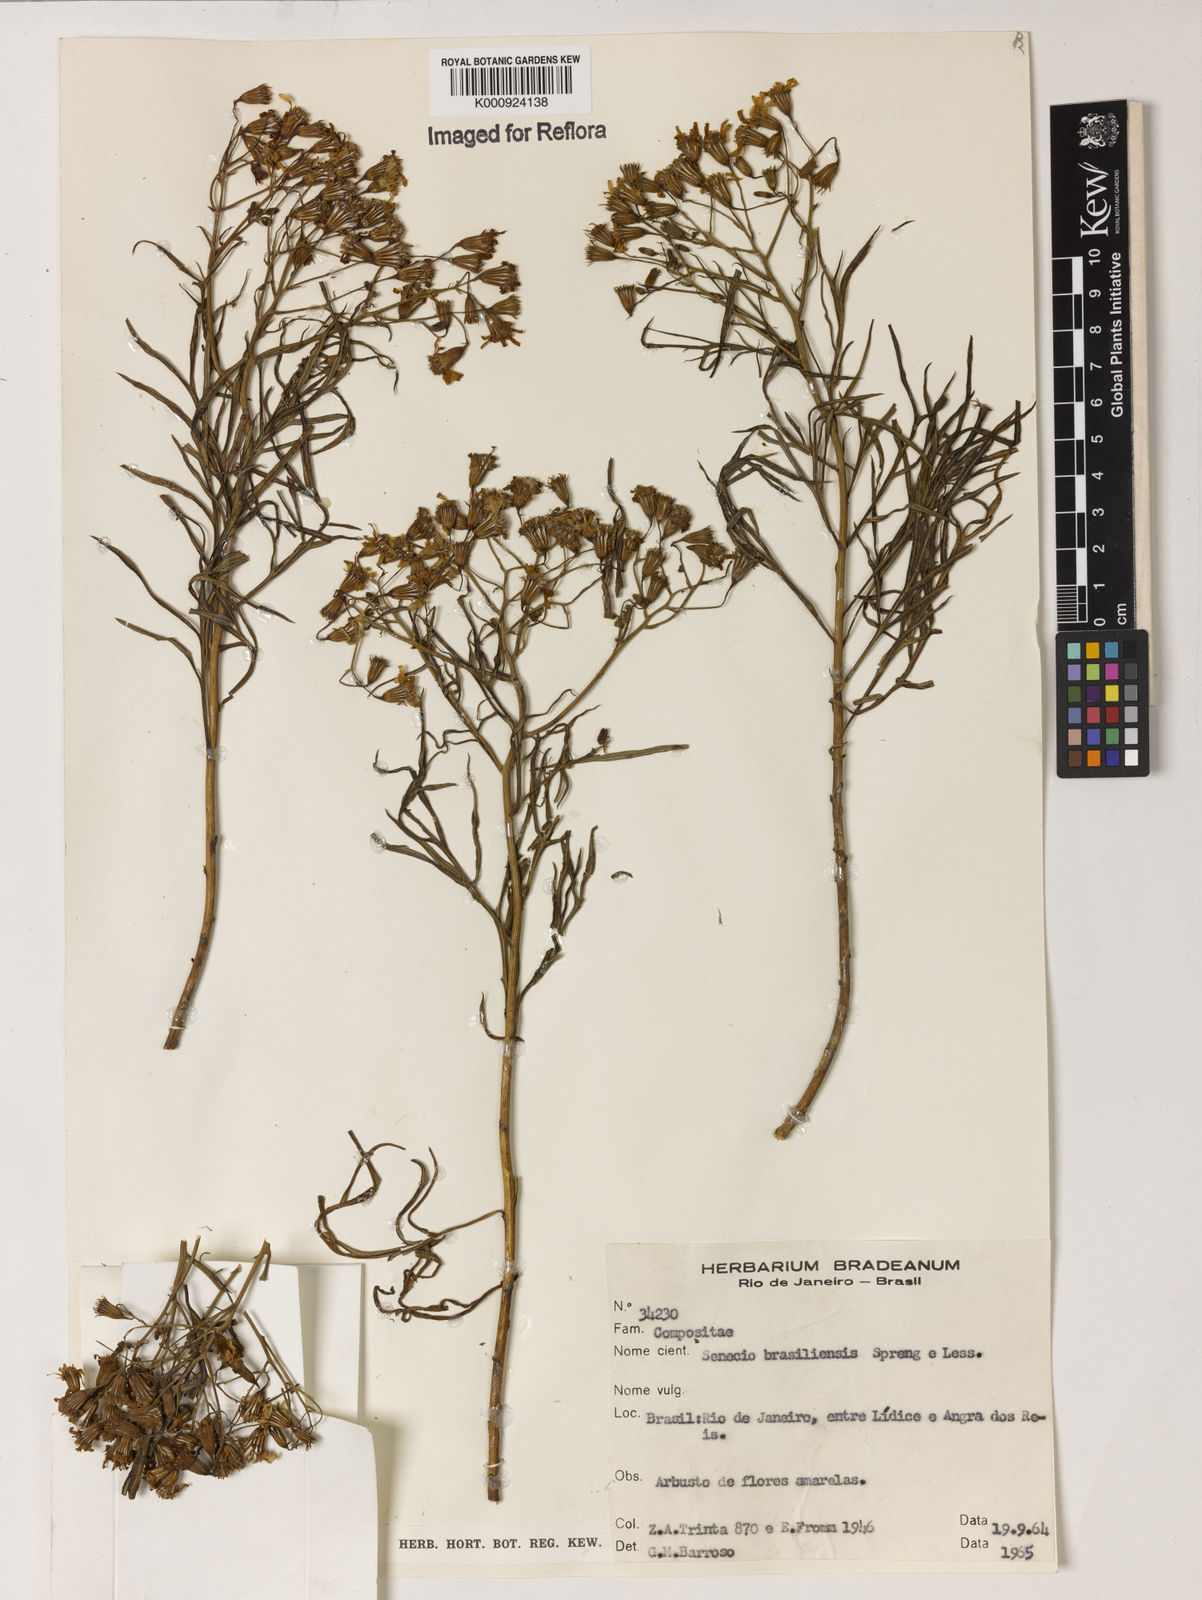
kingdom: Plantae
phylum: Tracheophyta
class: Magnoliopsida
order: Asterales
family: Asteraceae
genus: Senecio
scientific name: Senecio brasiliensis
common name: Hemp-leaf ragwort
